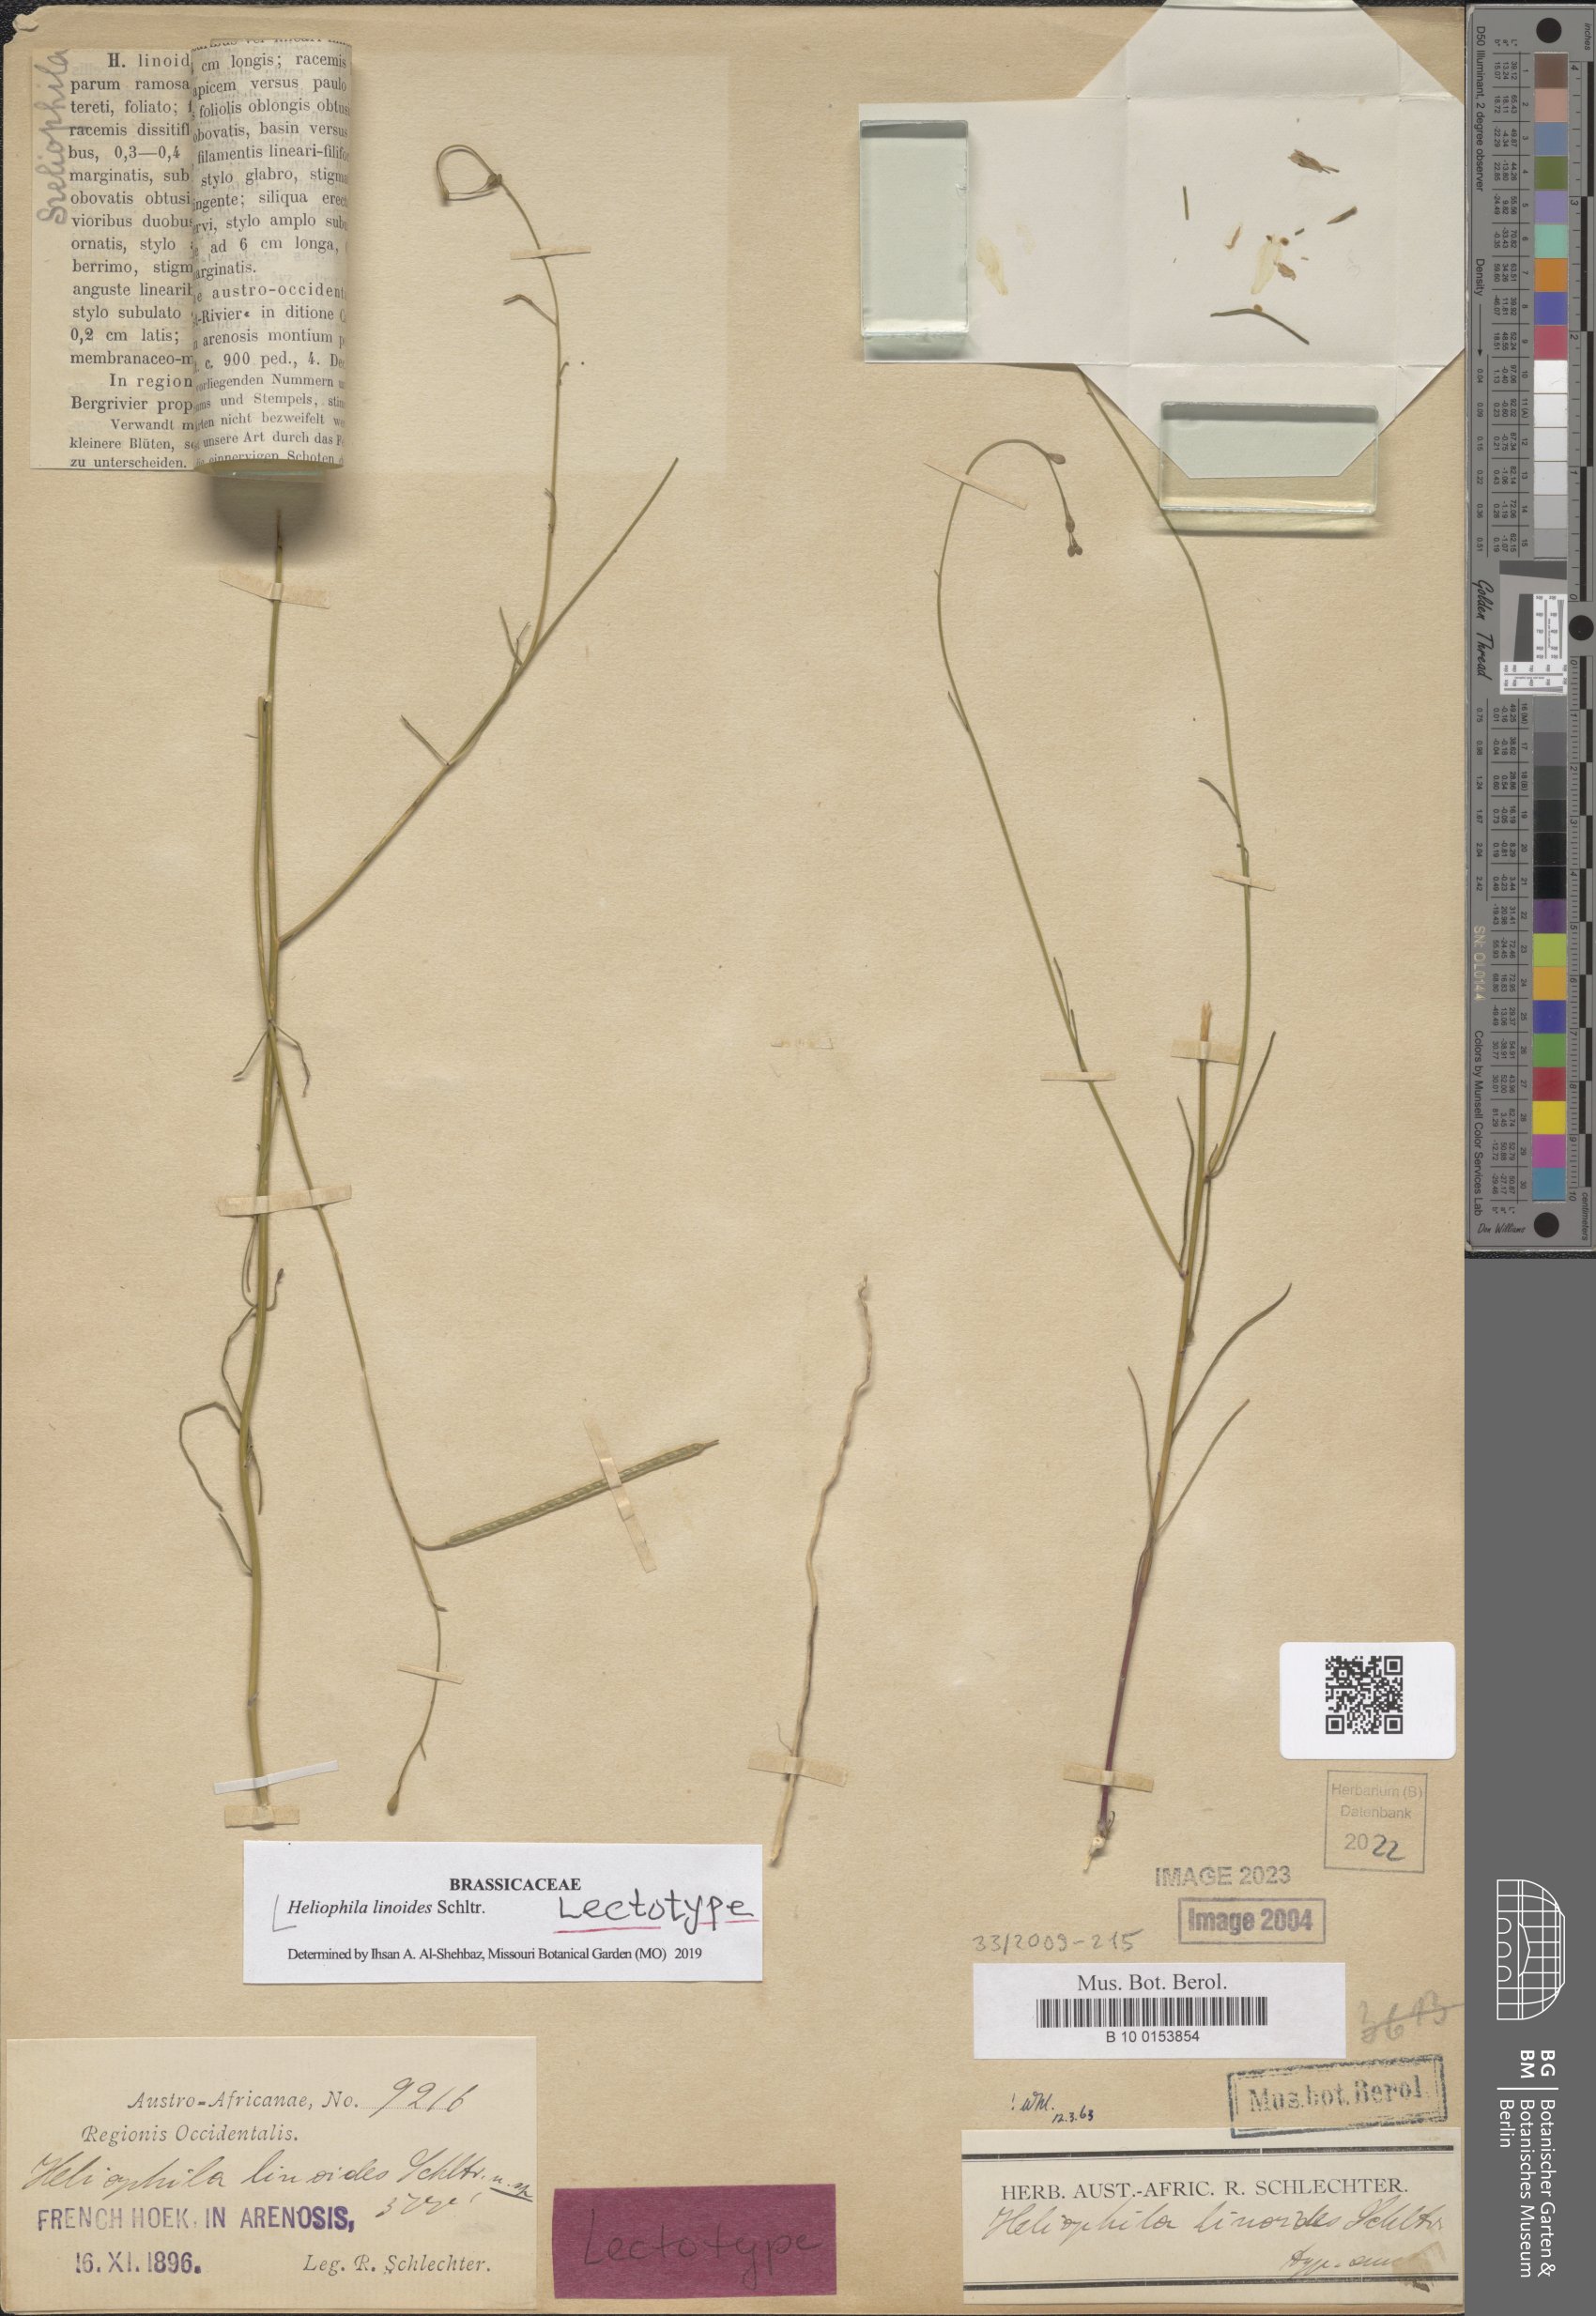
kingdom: Plantae
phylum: Tracheophyta
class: Magnoliopsida
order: Brassicales
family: Brassicaceae
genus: Heliophila
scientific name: Heliophila linoides
